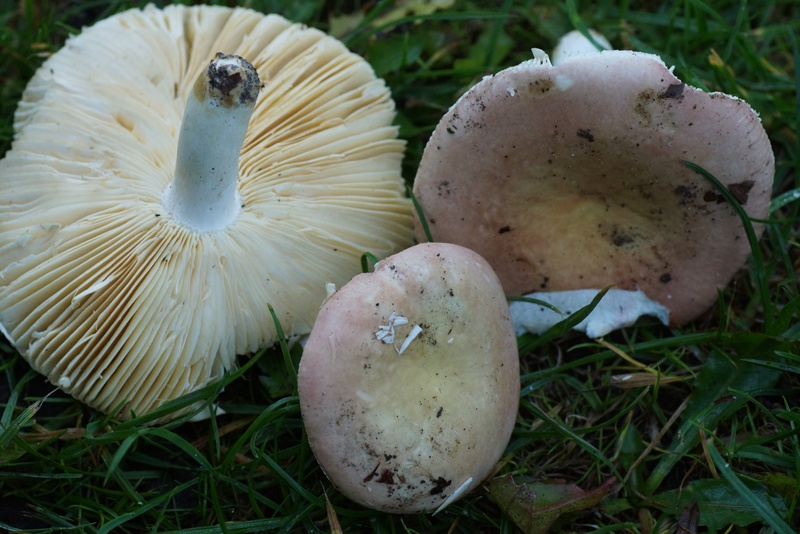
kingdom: Fungi
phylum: Basidiomycota
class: Agaricomycetes
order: Russulales
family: Russulaceae
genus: Russula
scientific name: Russula veternosa
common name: blødkødet skørhat
